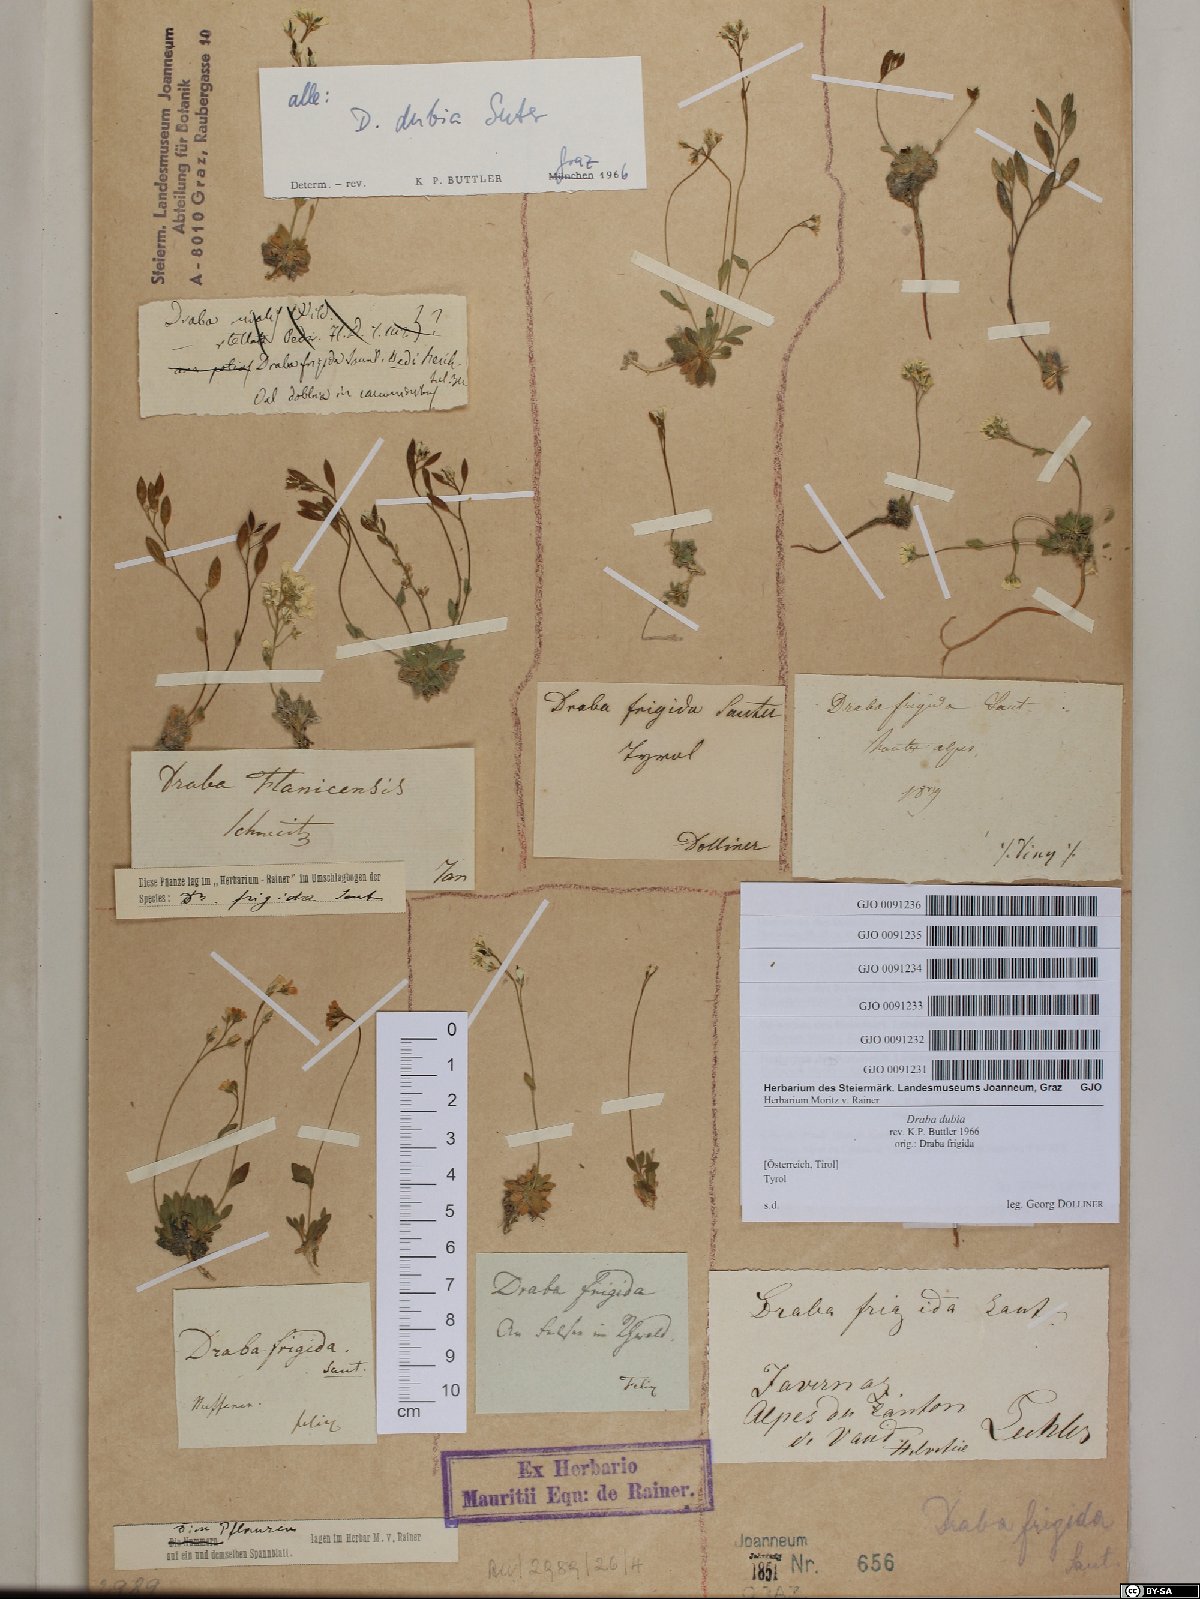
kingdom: Plantae
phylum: Tracheophyta
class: Magnoliopsida
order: Brassicales
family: Brassicaceae
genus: Draba
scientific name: Draba dubia
